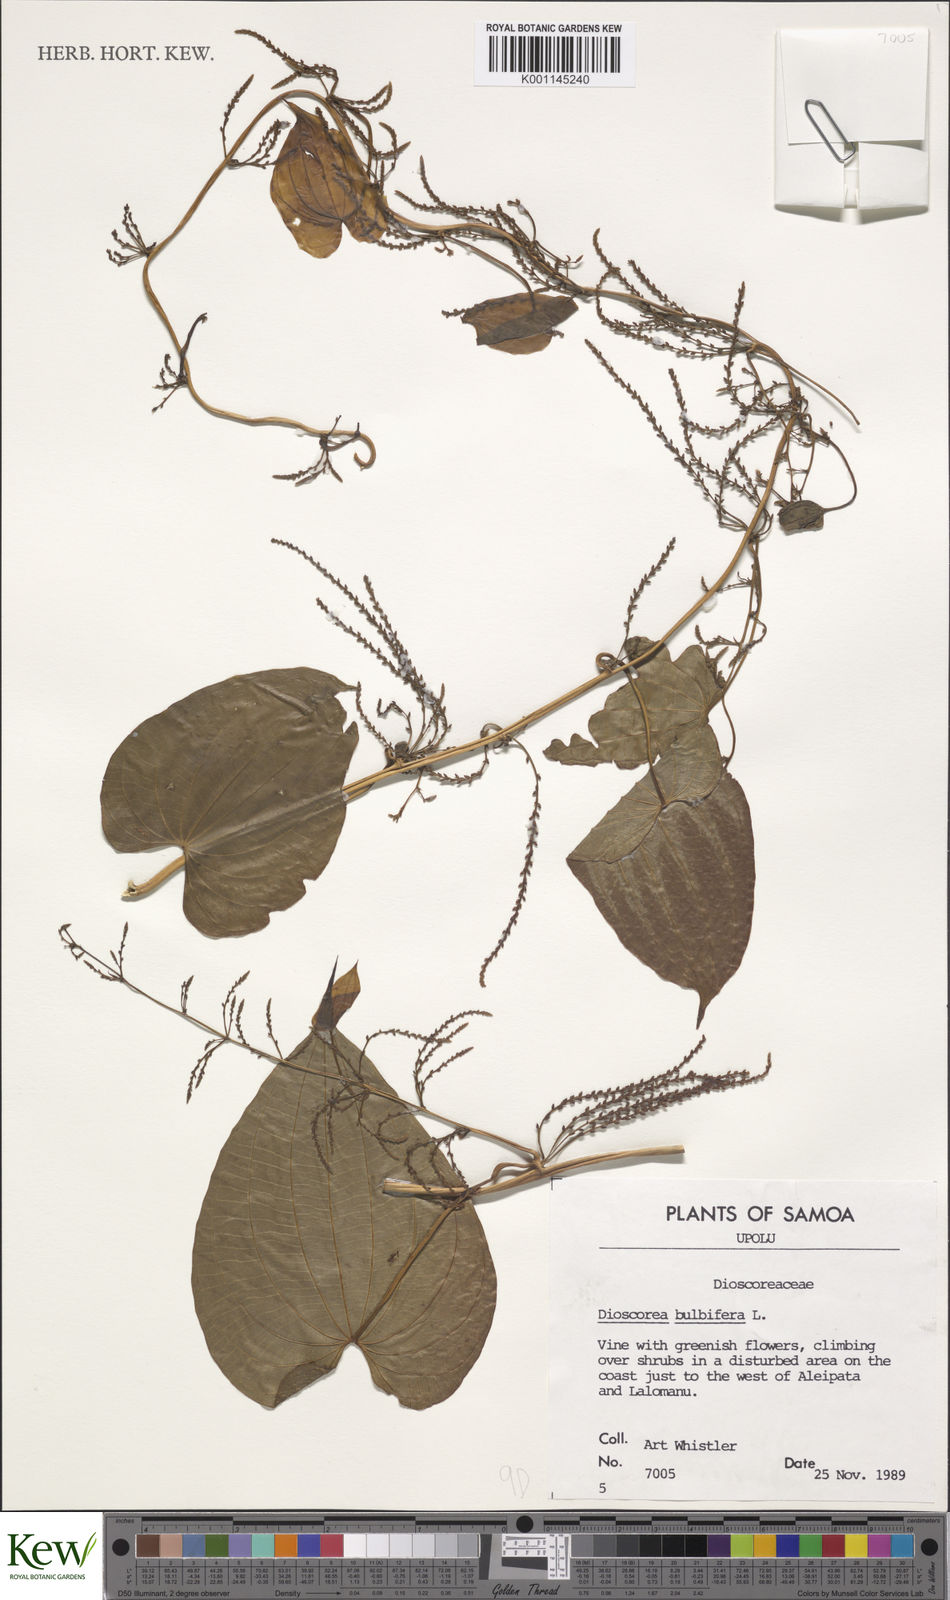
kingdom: Plantae
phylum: Tracheophyta
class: Liliopsida
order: Dioscoreales
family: Dioscoreaceae
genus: Dioscorea
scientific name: Dioscorea bulbifera
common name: Air yam
